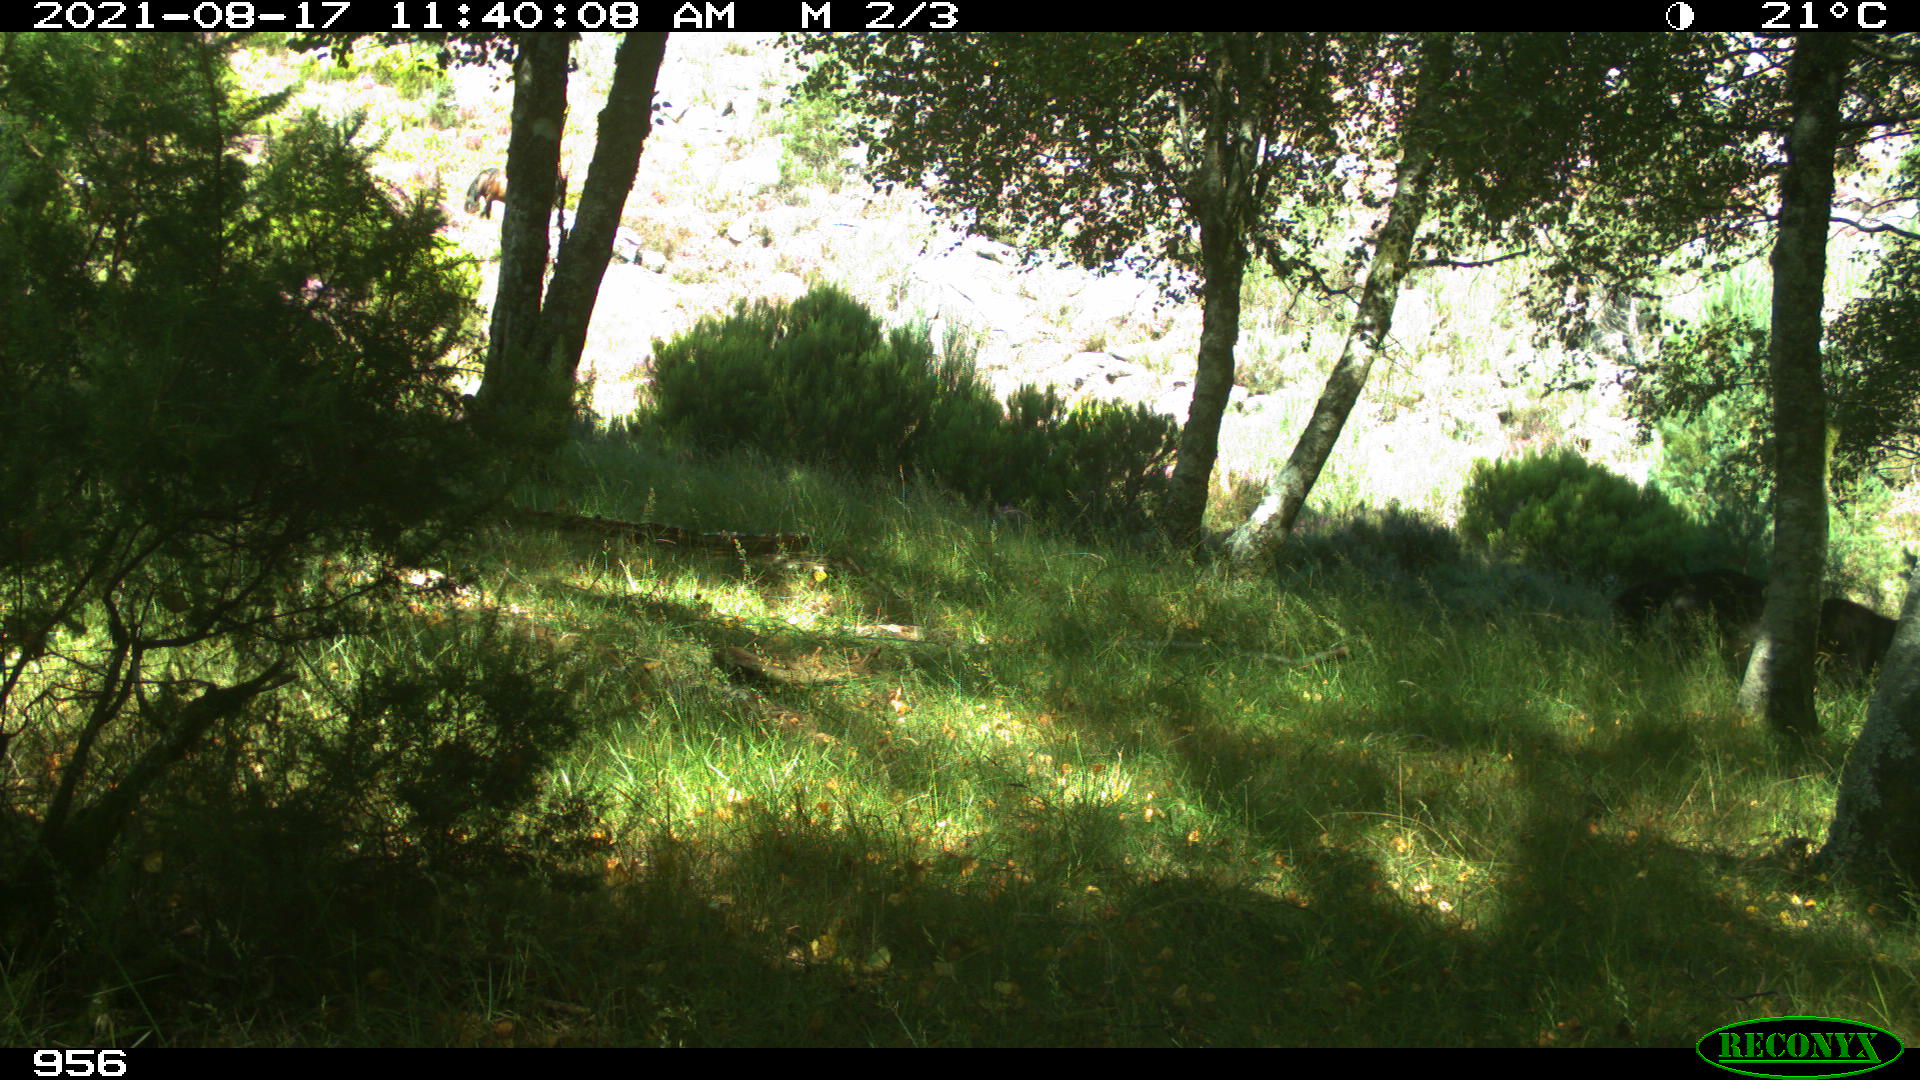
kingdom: Animalia
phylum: Chordata
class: Mammalia
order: Perissodactyla
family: Equidae
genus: Equus
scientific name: Equus caballus
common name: Horse
